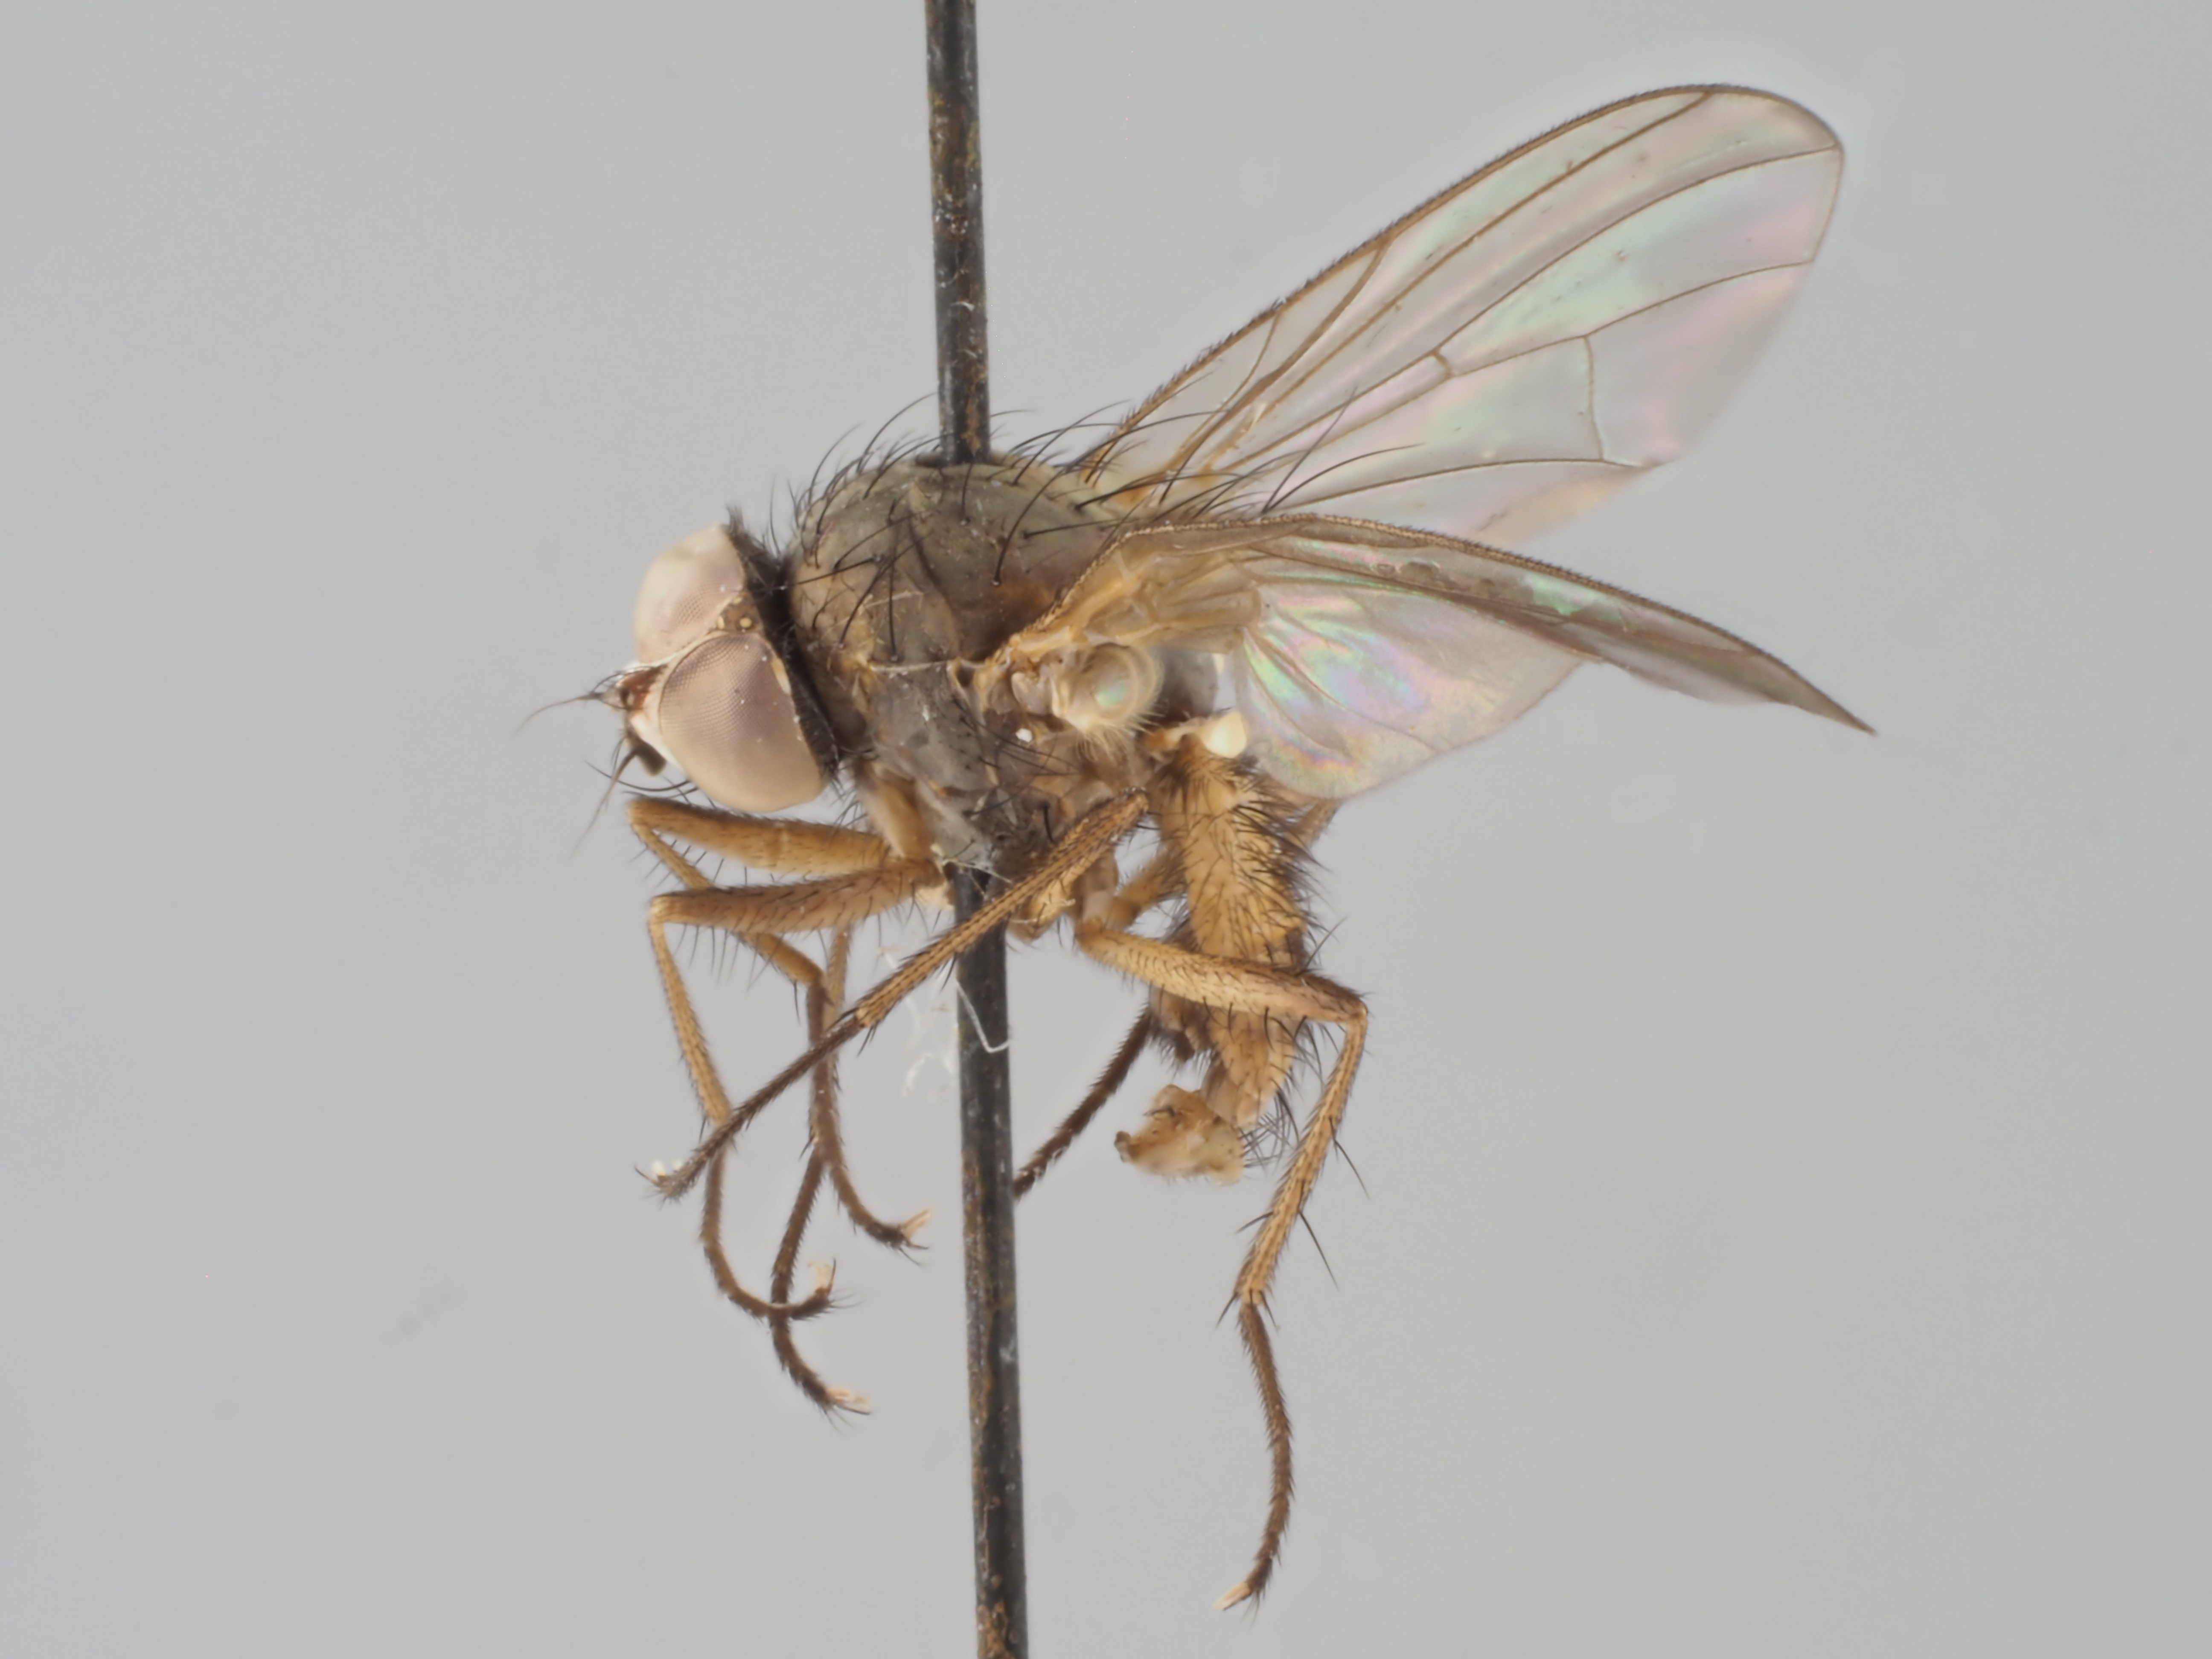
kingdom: Animalia
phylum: Arthropoda
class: Insecta
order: Diptera
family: Anthomyiidae
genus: Pegomya
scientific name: Pegomya zonata
